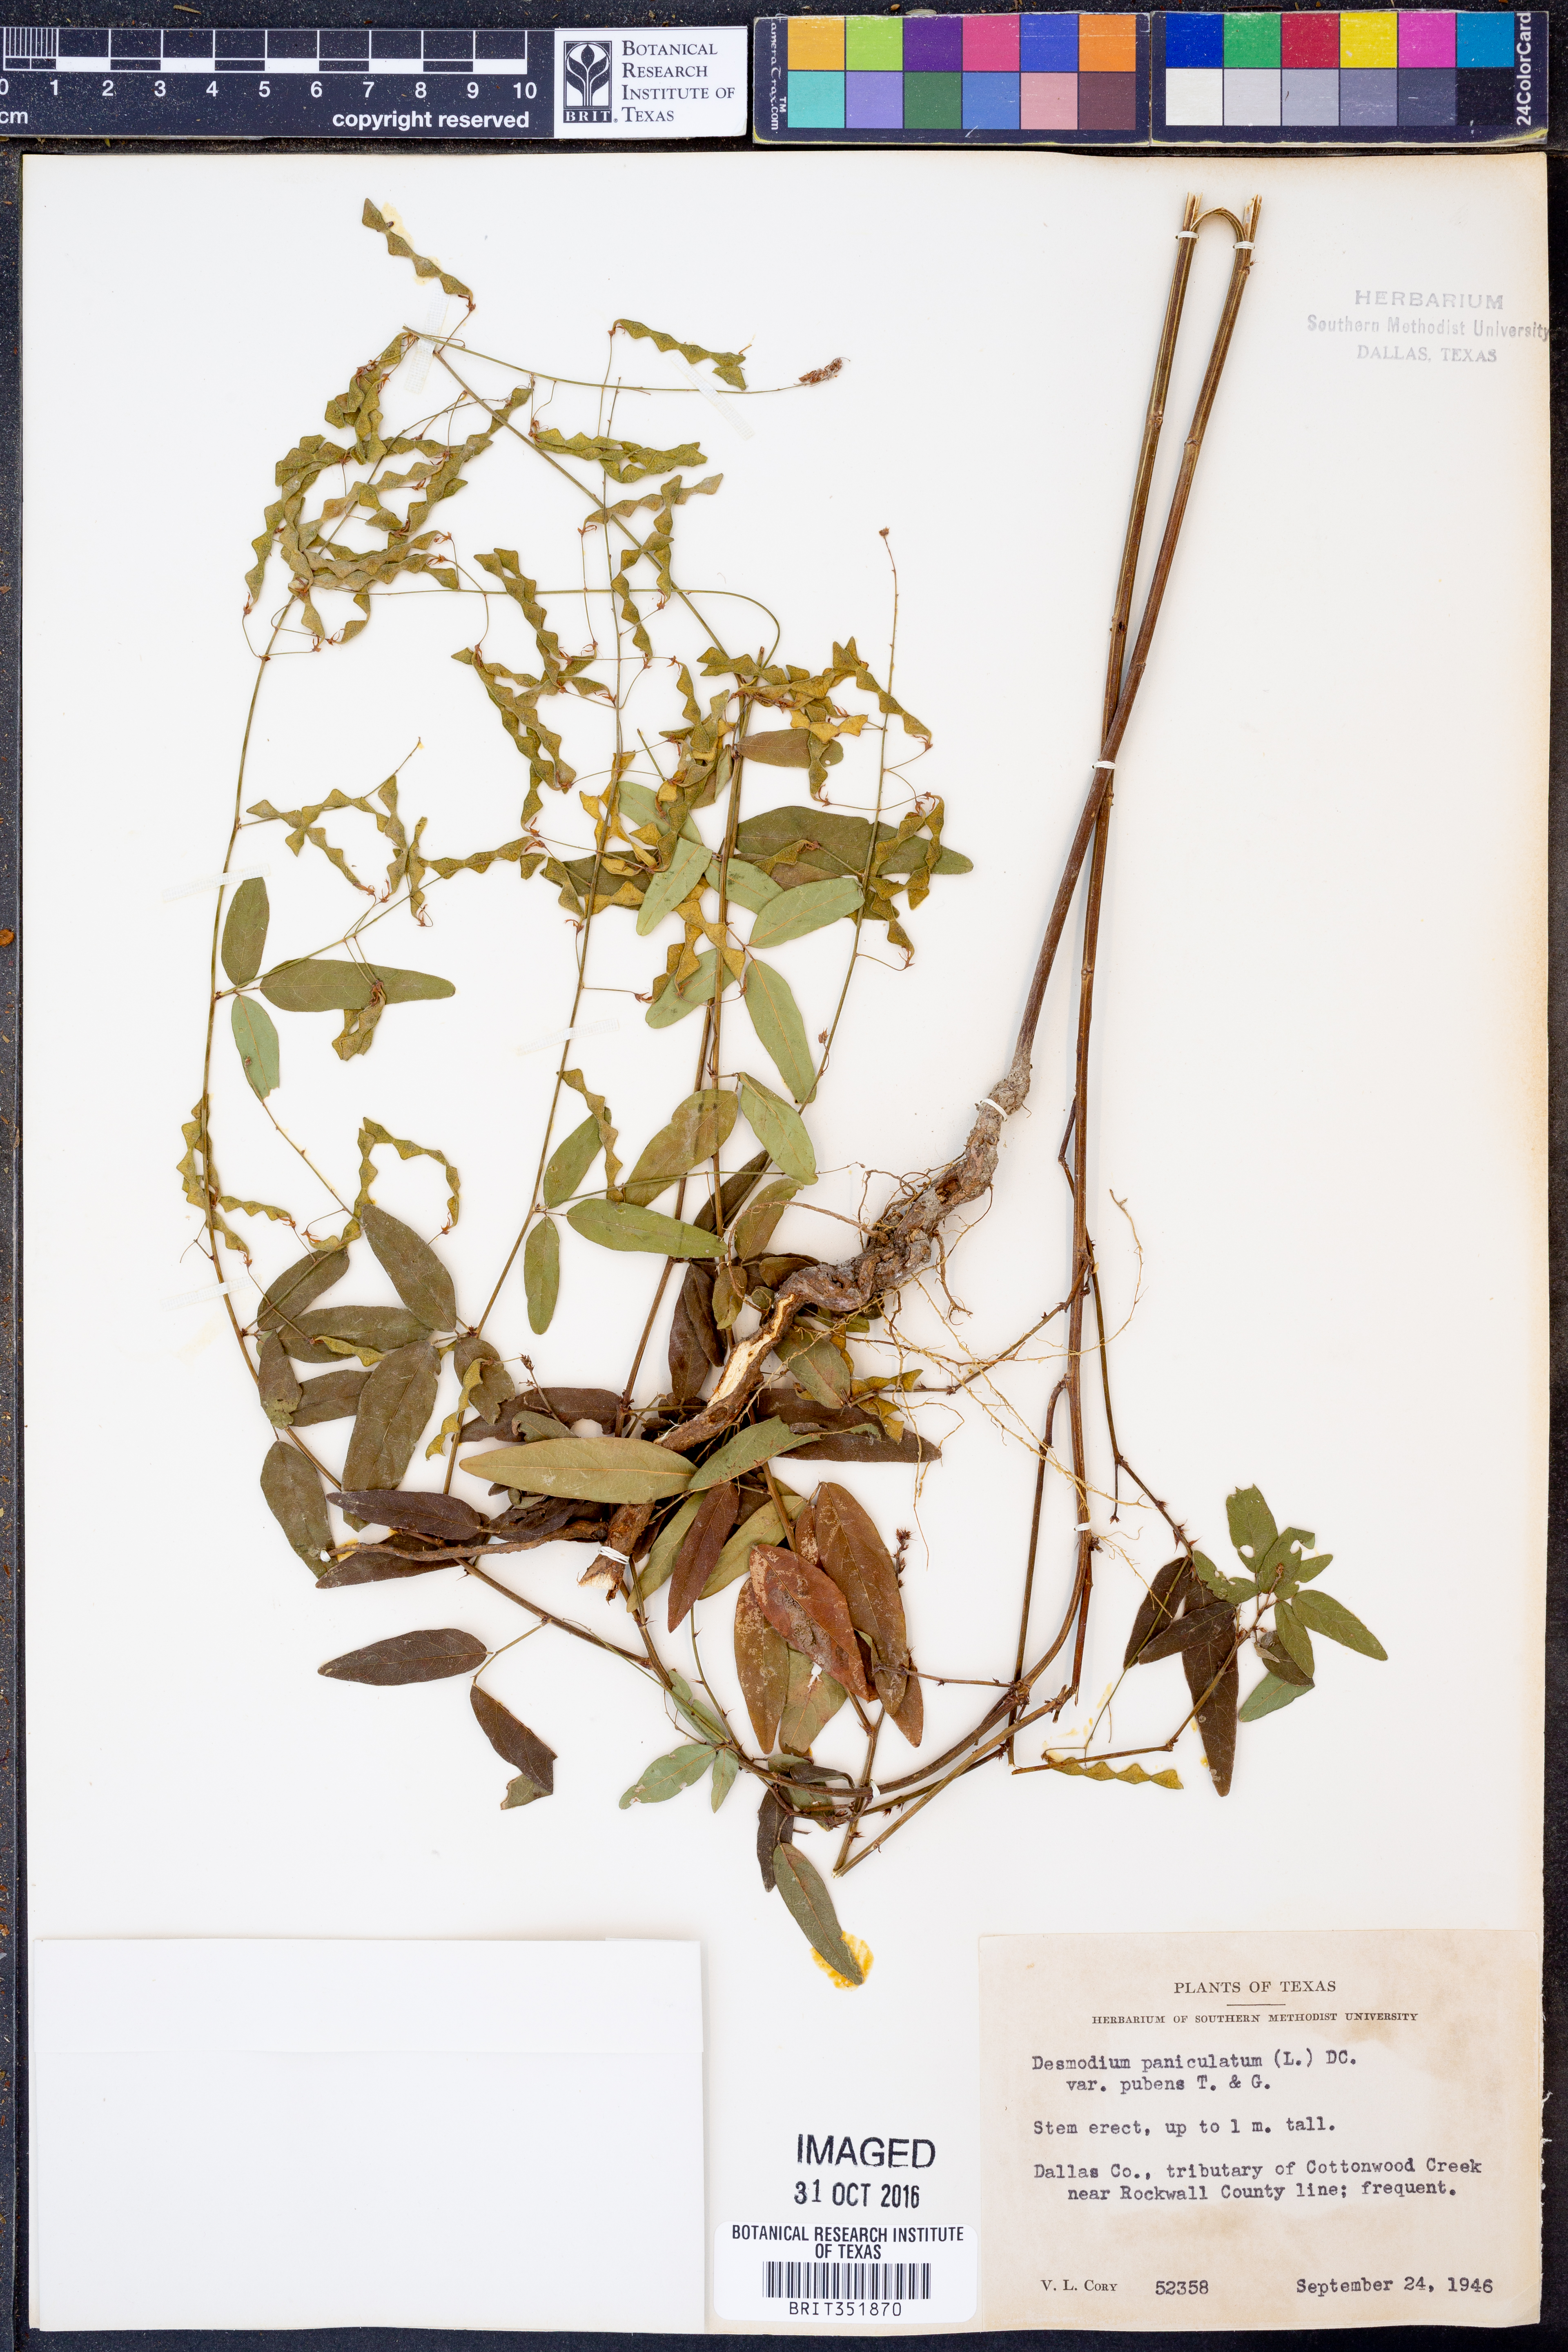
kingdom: Plantae
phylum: Tracheophyta
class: Magnoliopsida
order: Fabales
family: Fabaceae
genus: Desmodium
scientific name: Desmodium paniculatum
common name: Panicled tick-clover
